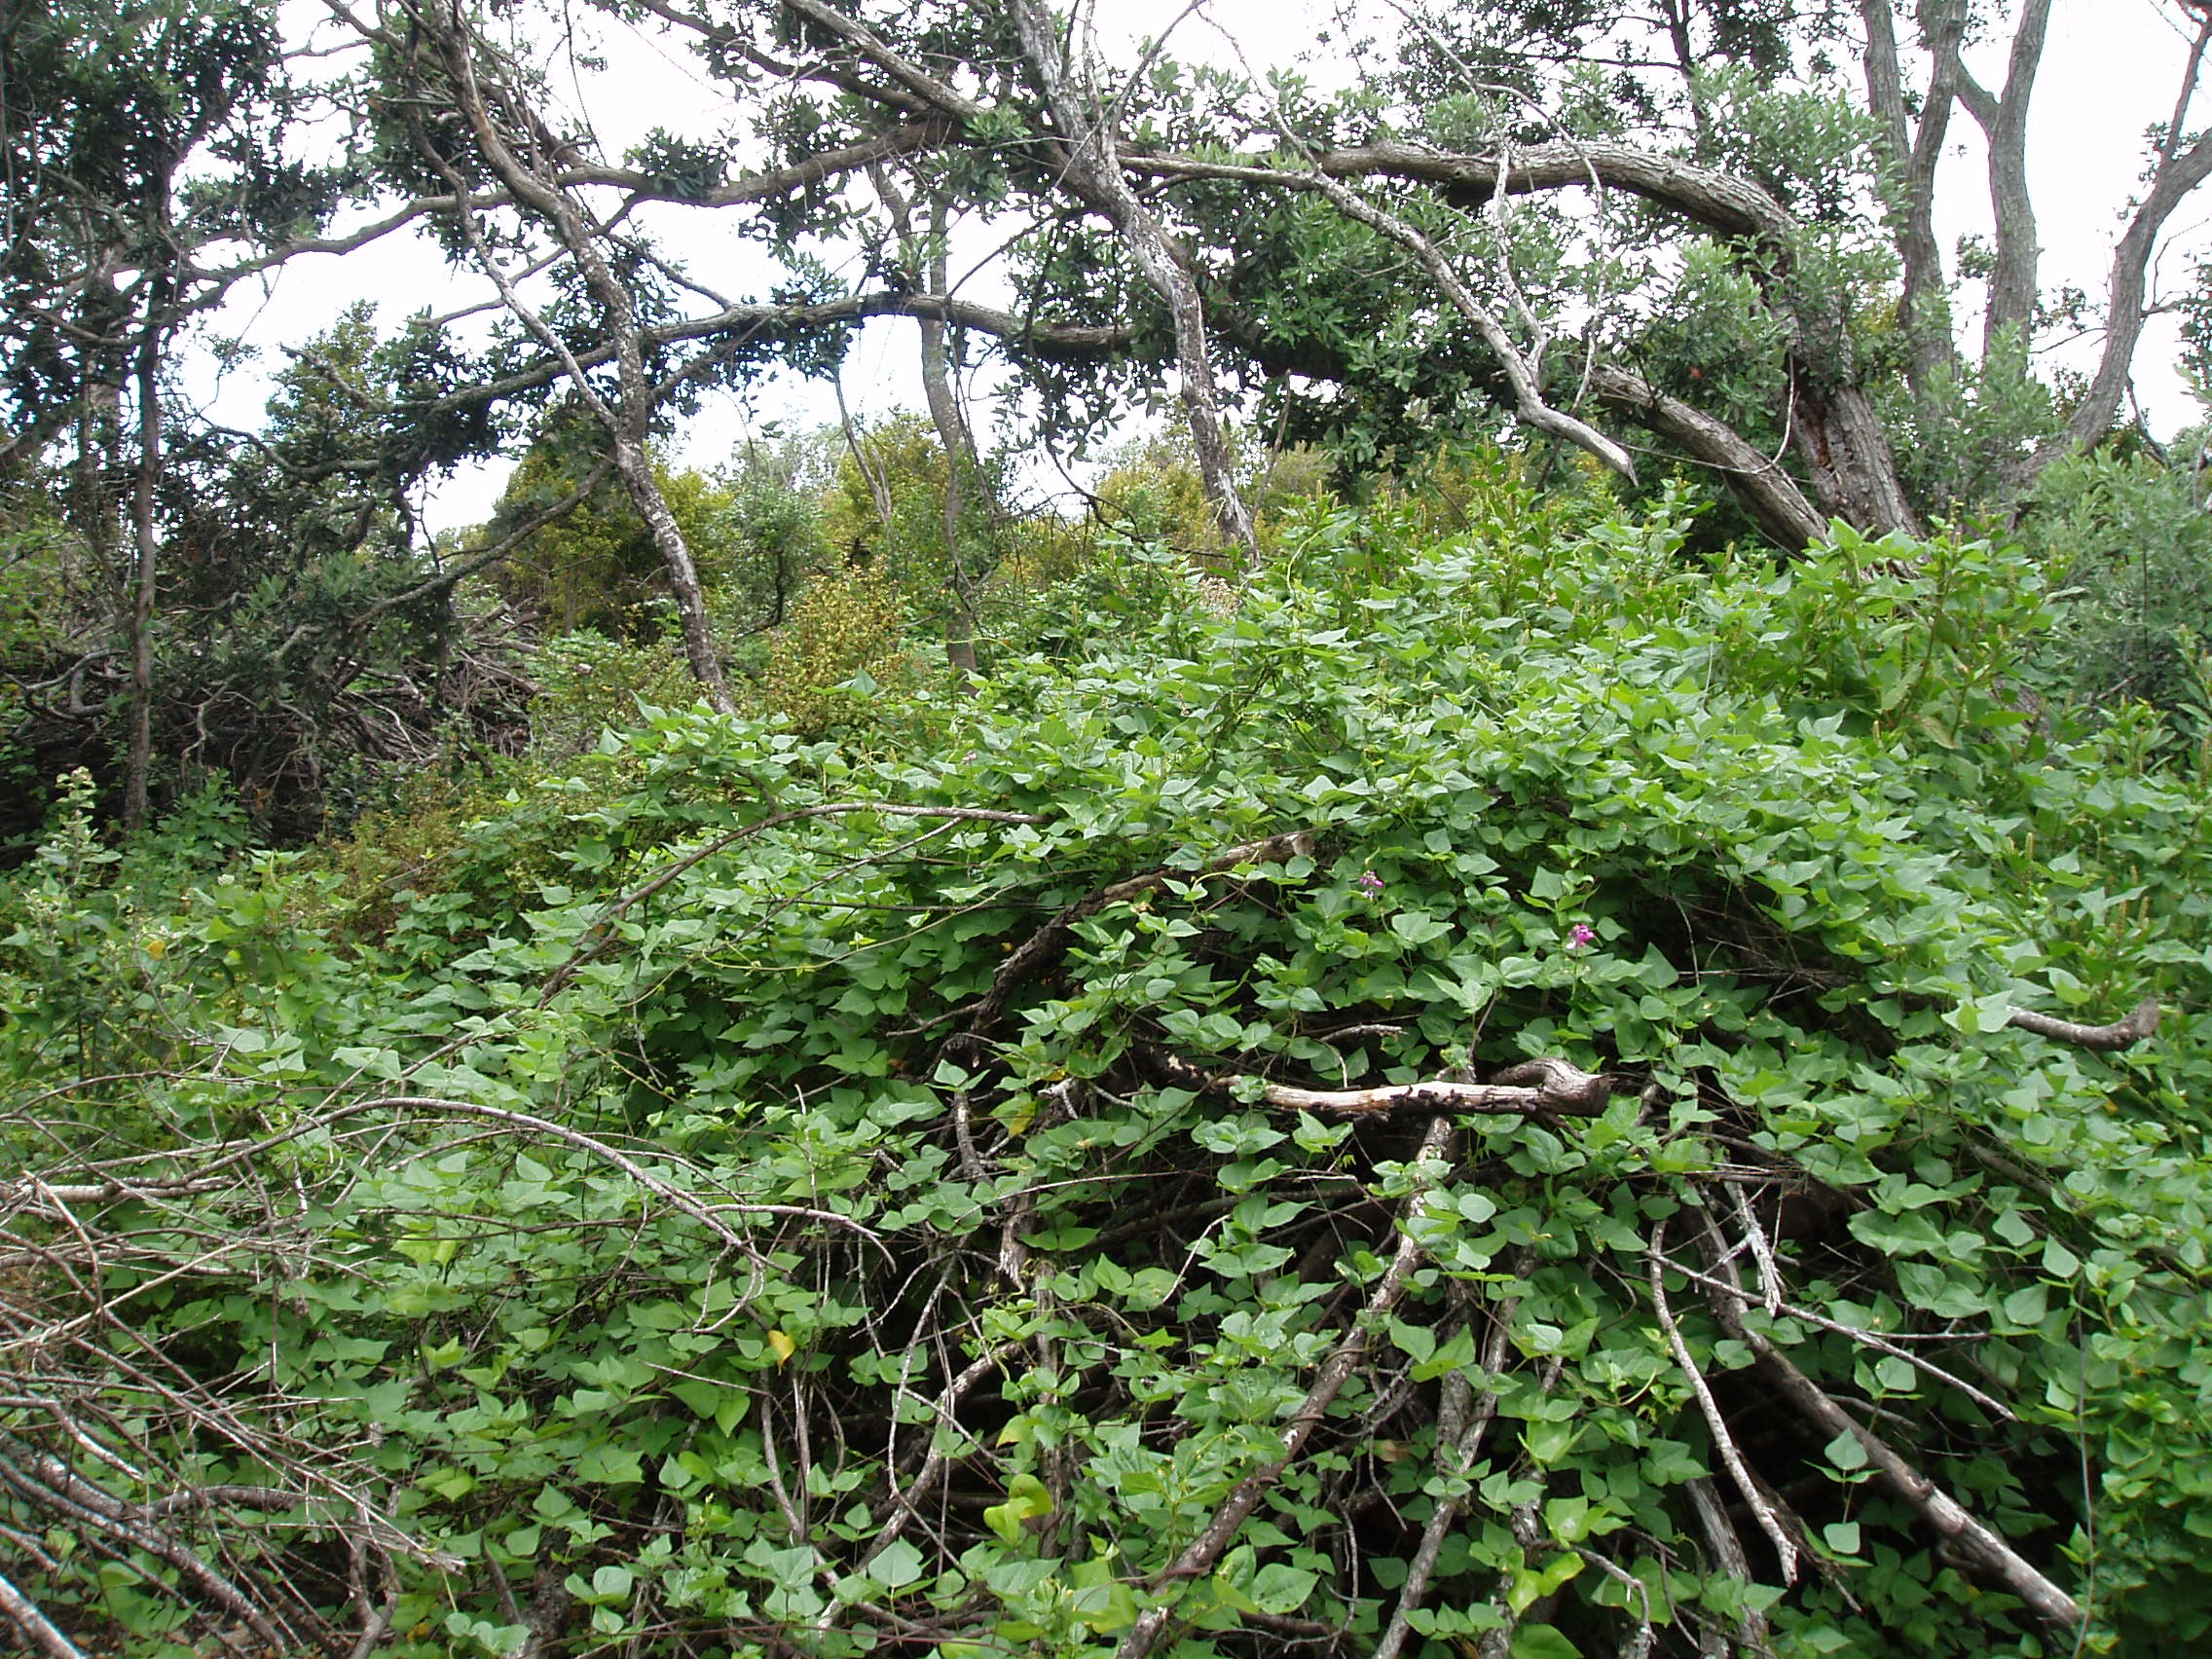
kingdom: Plantae
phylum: Tracheophyta
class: Magnoliopsida
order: Fabales
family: Fabaceae
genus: Dipogon
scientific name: Dipogon lignosus
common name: Okie bean
